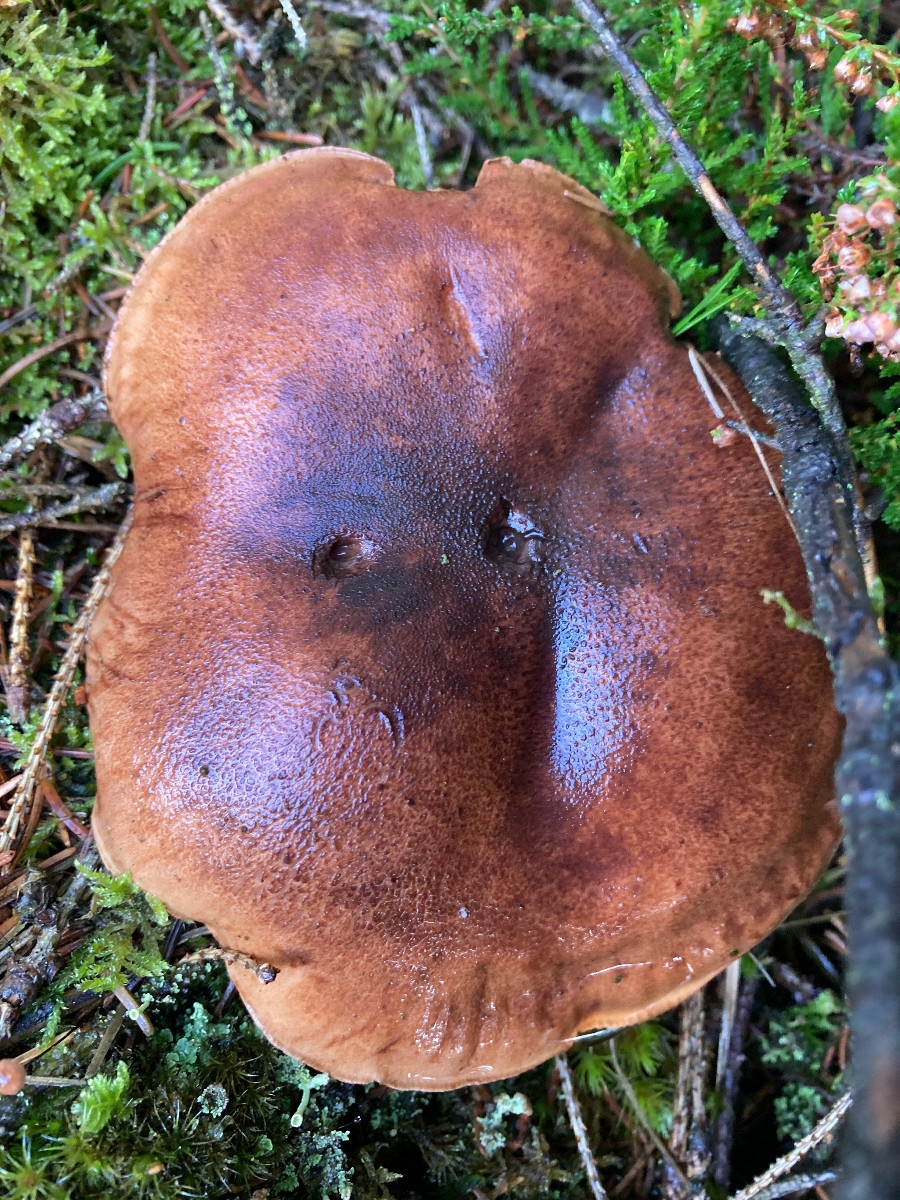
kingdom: Fungi
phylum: Basidiomycota
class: Agaricomycetes
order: Agaricales
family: Tricholomataceae
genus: Tricholoma
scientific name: Tricholoma fulvum
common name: birke-ridderhat
